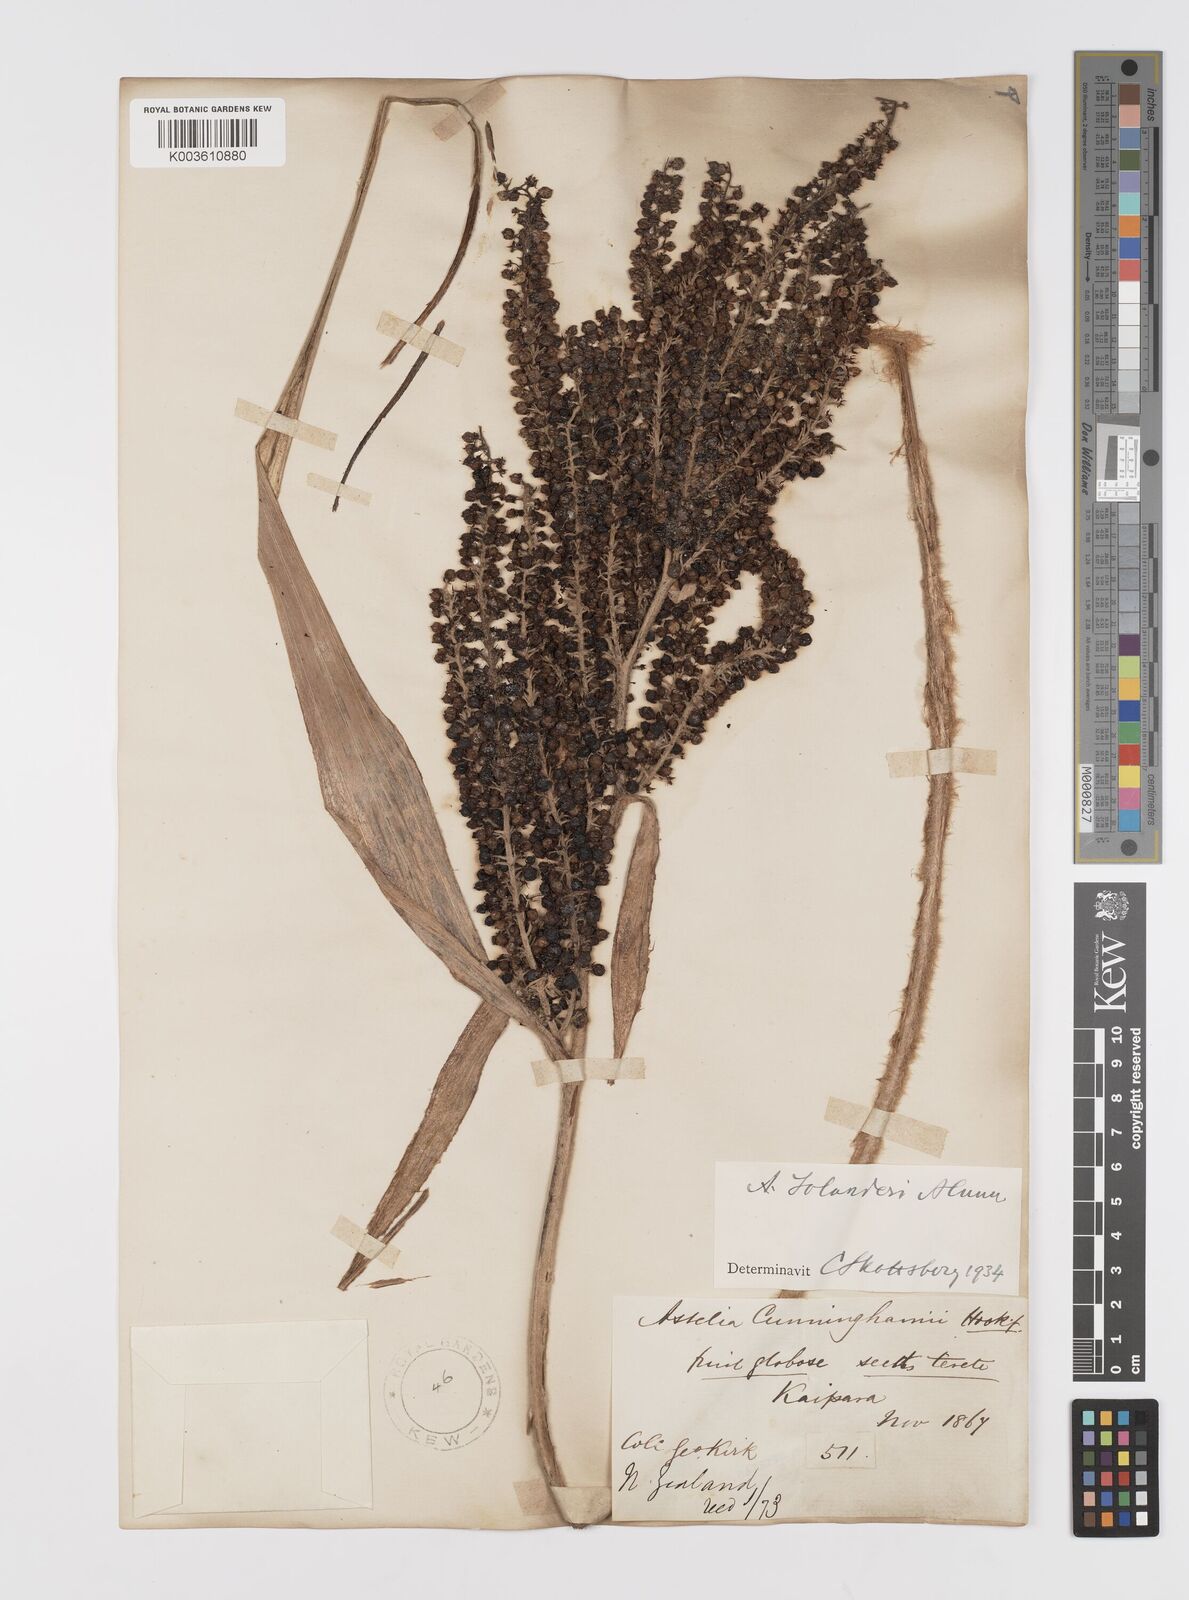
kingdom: Plantae
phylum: Tracheophyta
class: Liliopsida
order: Asparagales
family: Asteliaceae
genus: Astelia
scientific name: Astelia solandri
